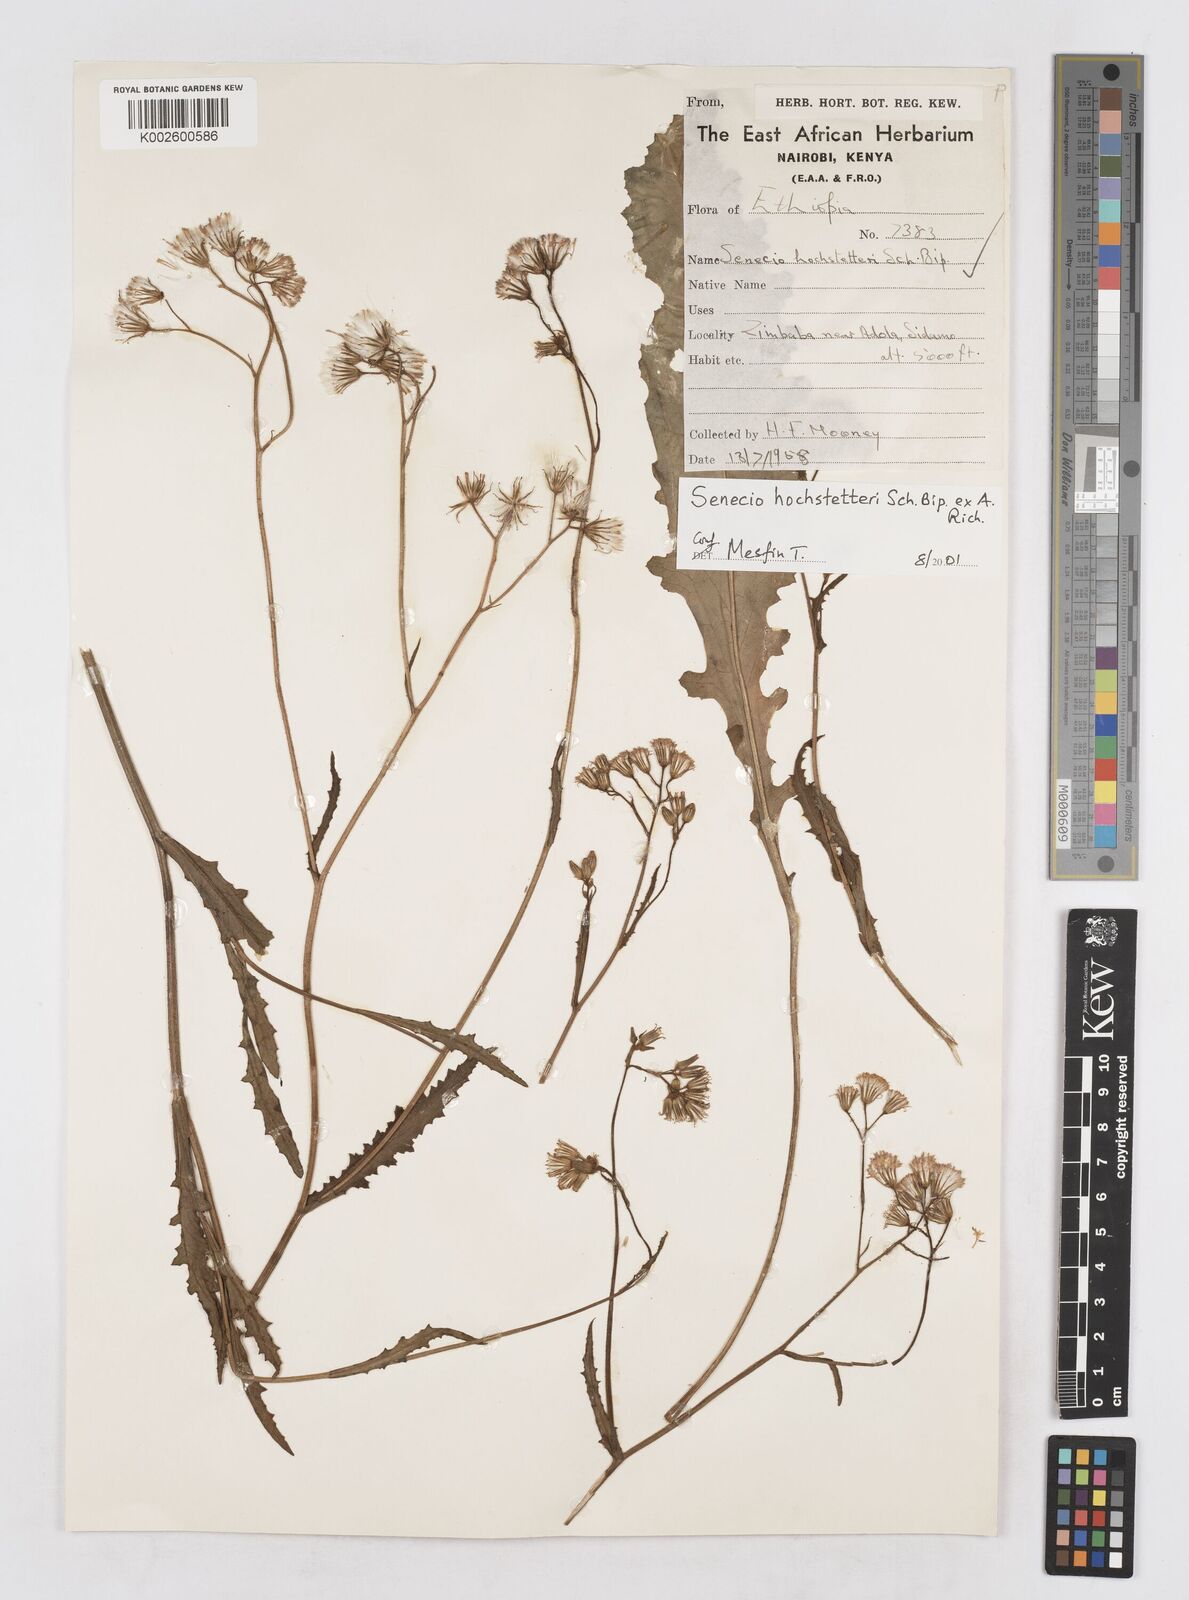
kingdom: Plantae
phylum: Tracheophyta
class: Magnoliopsida
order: Asterales
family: Asteraceae
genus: Senecio
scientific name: Senecio hochstetteri
